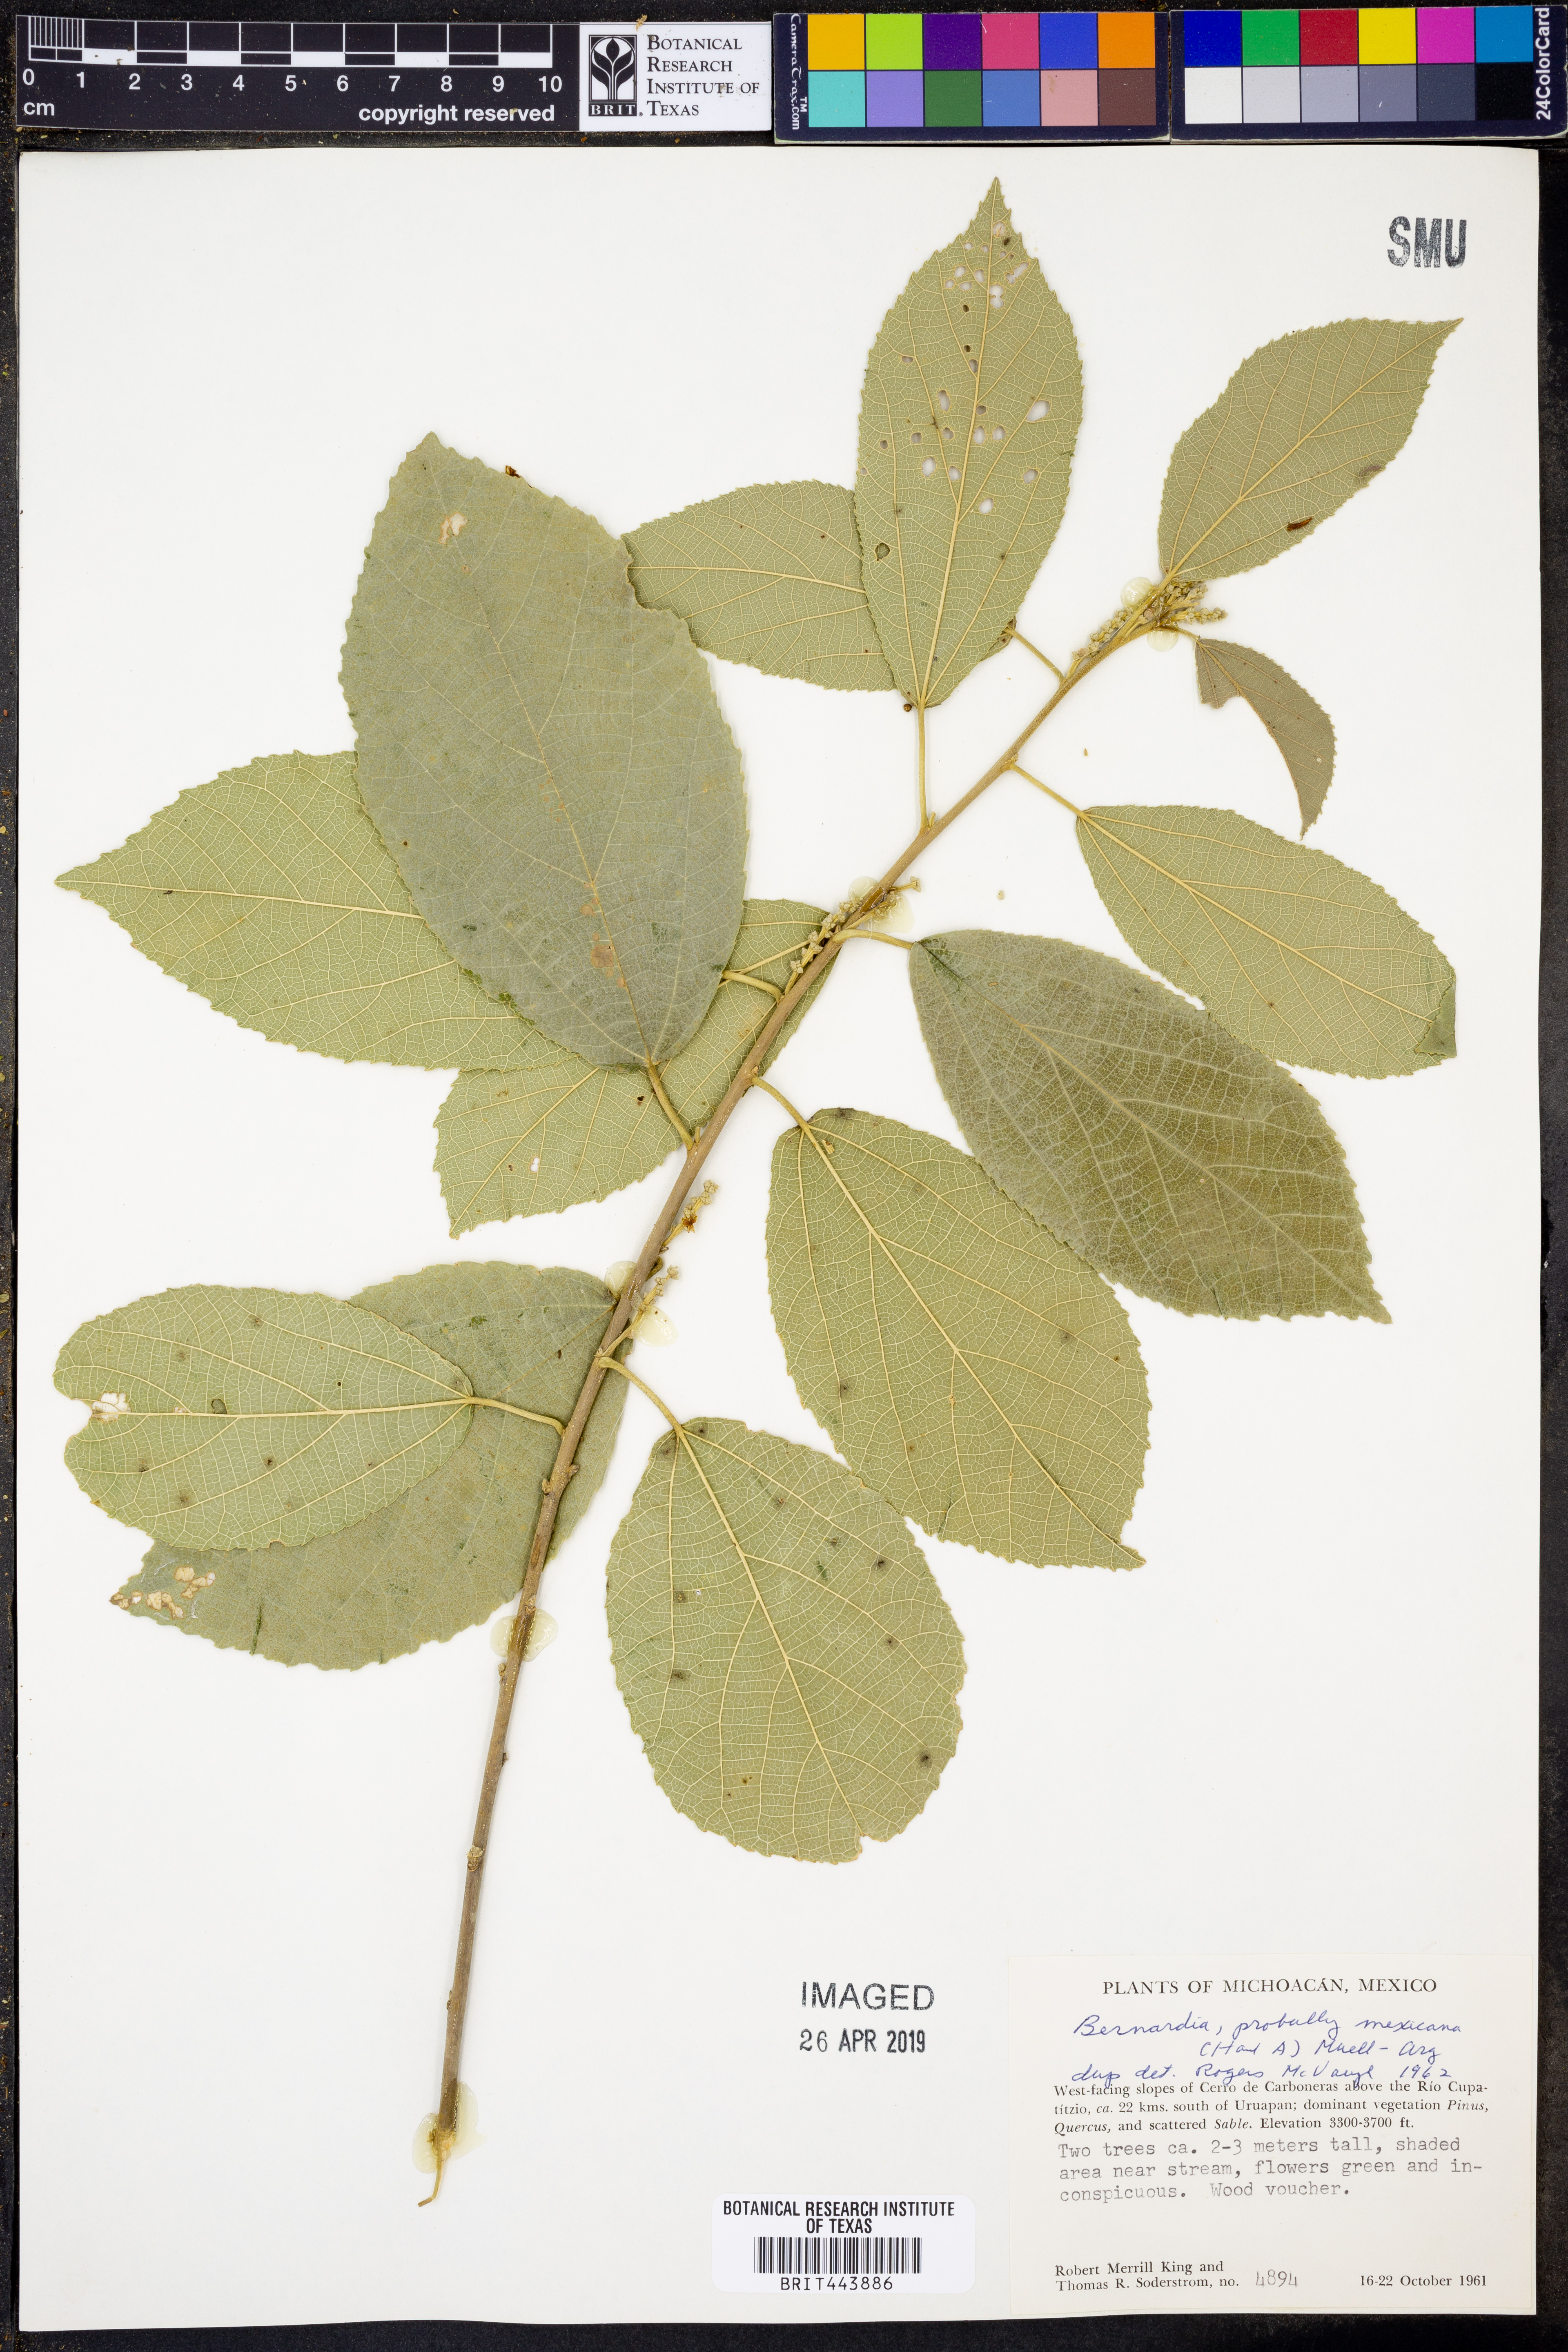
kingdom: Plantae
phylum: Tracheophyta
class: Magnoliopsida
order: Malpighiales
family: Euphorbiaceae
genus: Bernardia
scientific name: Bernardia mexicana
